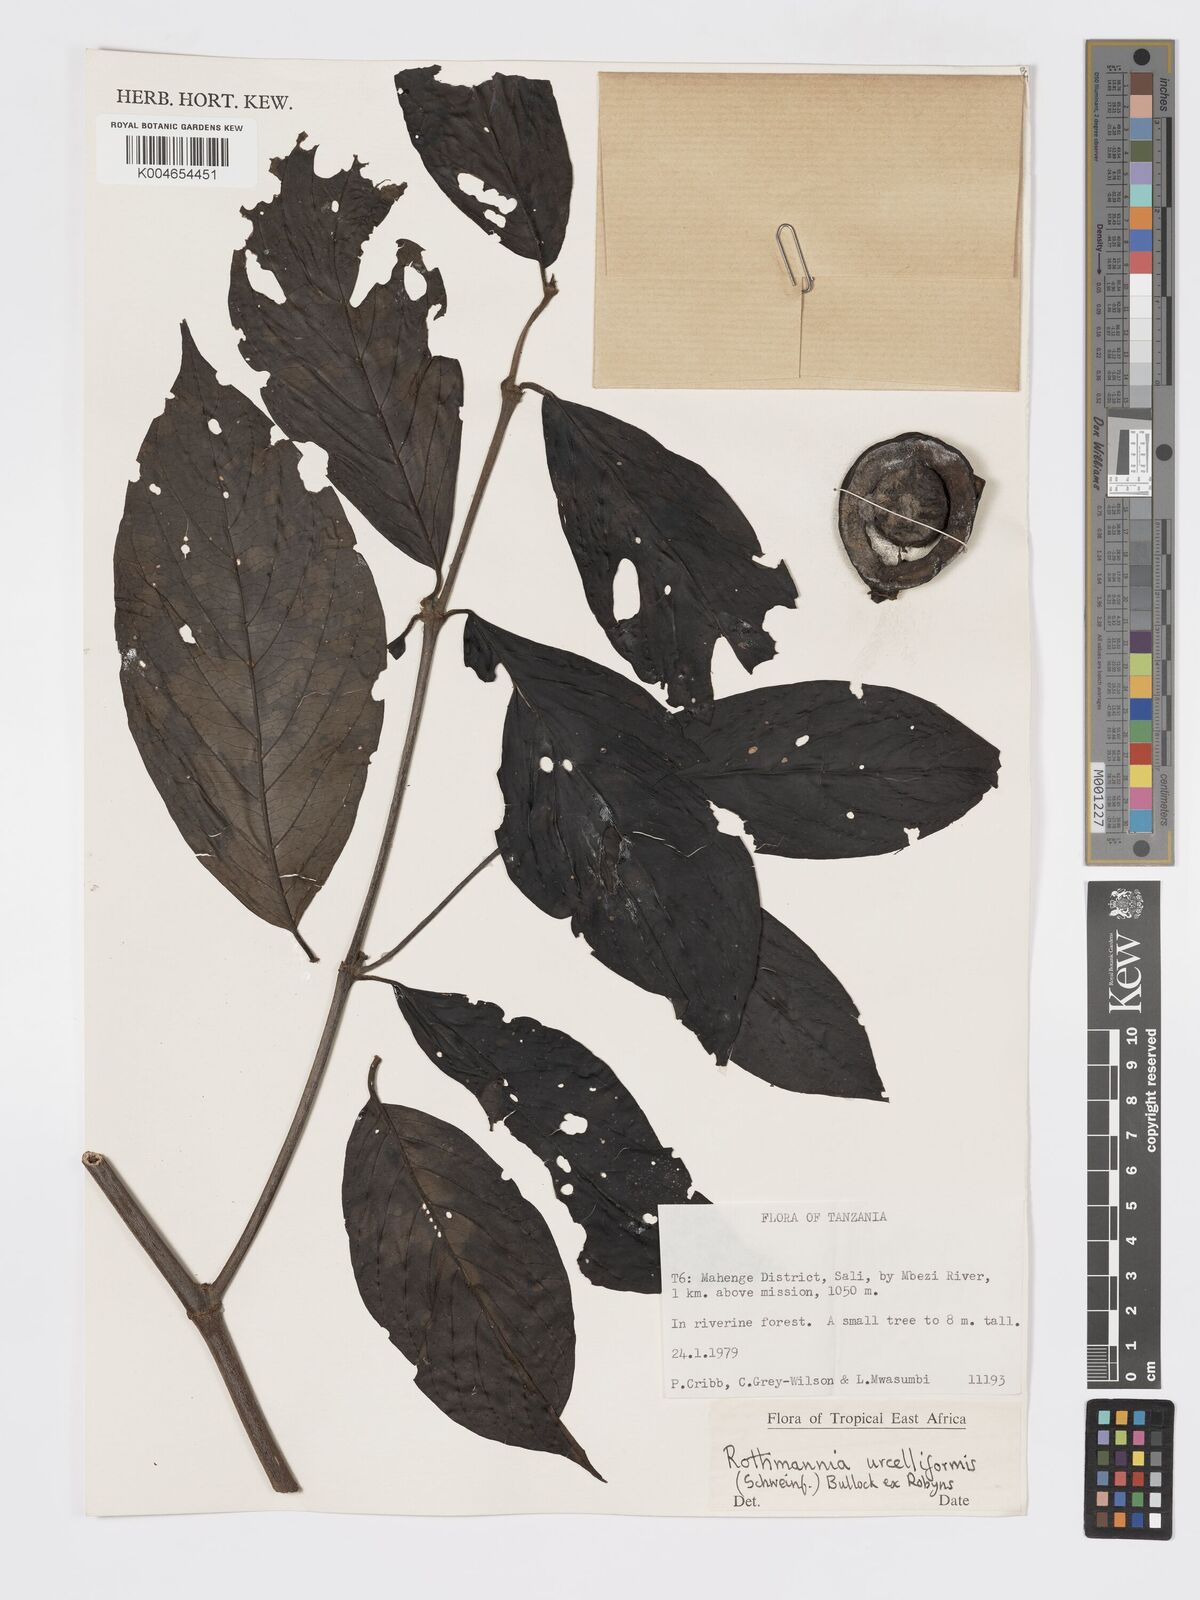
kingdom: Plantae
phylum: Tracheophyta
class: Magnoliopsida
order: Gentianales
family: Rubiaceae
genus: Rothmannia
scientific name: Rothmannia urcelliformis
